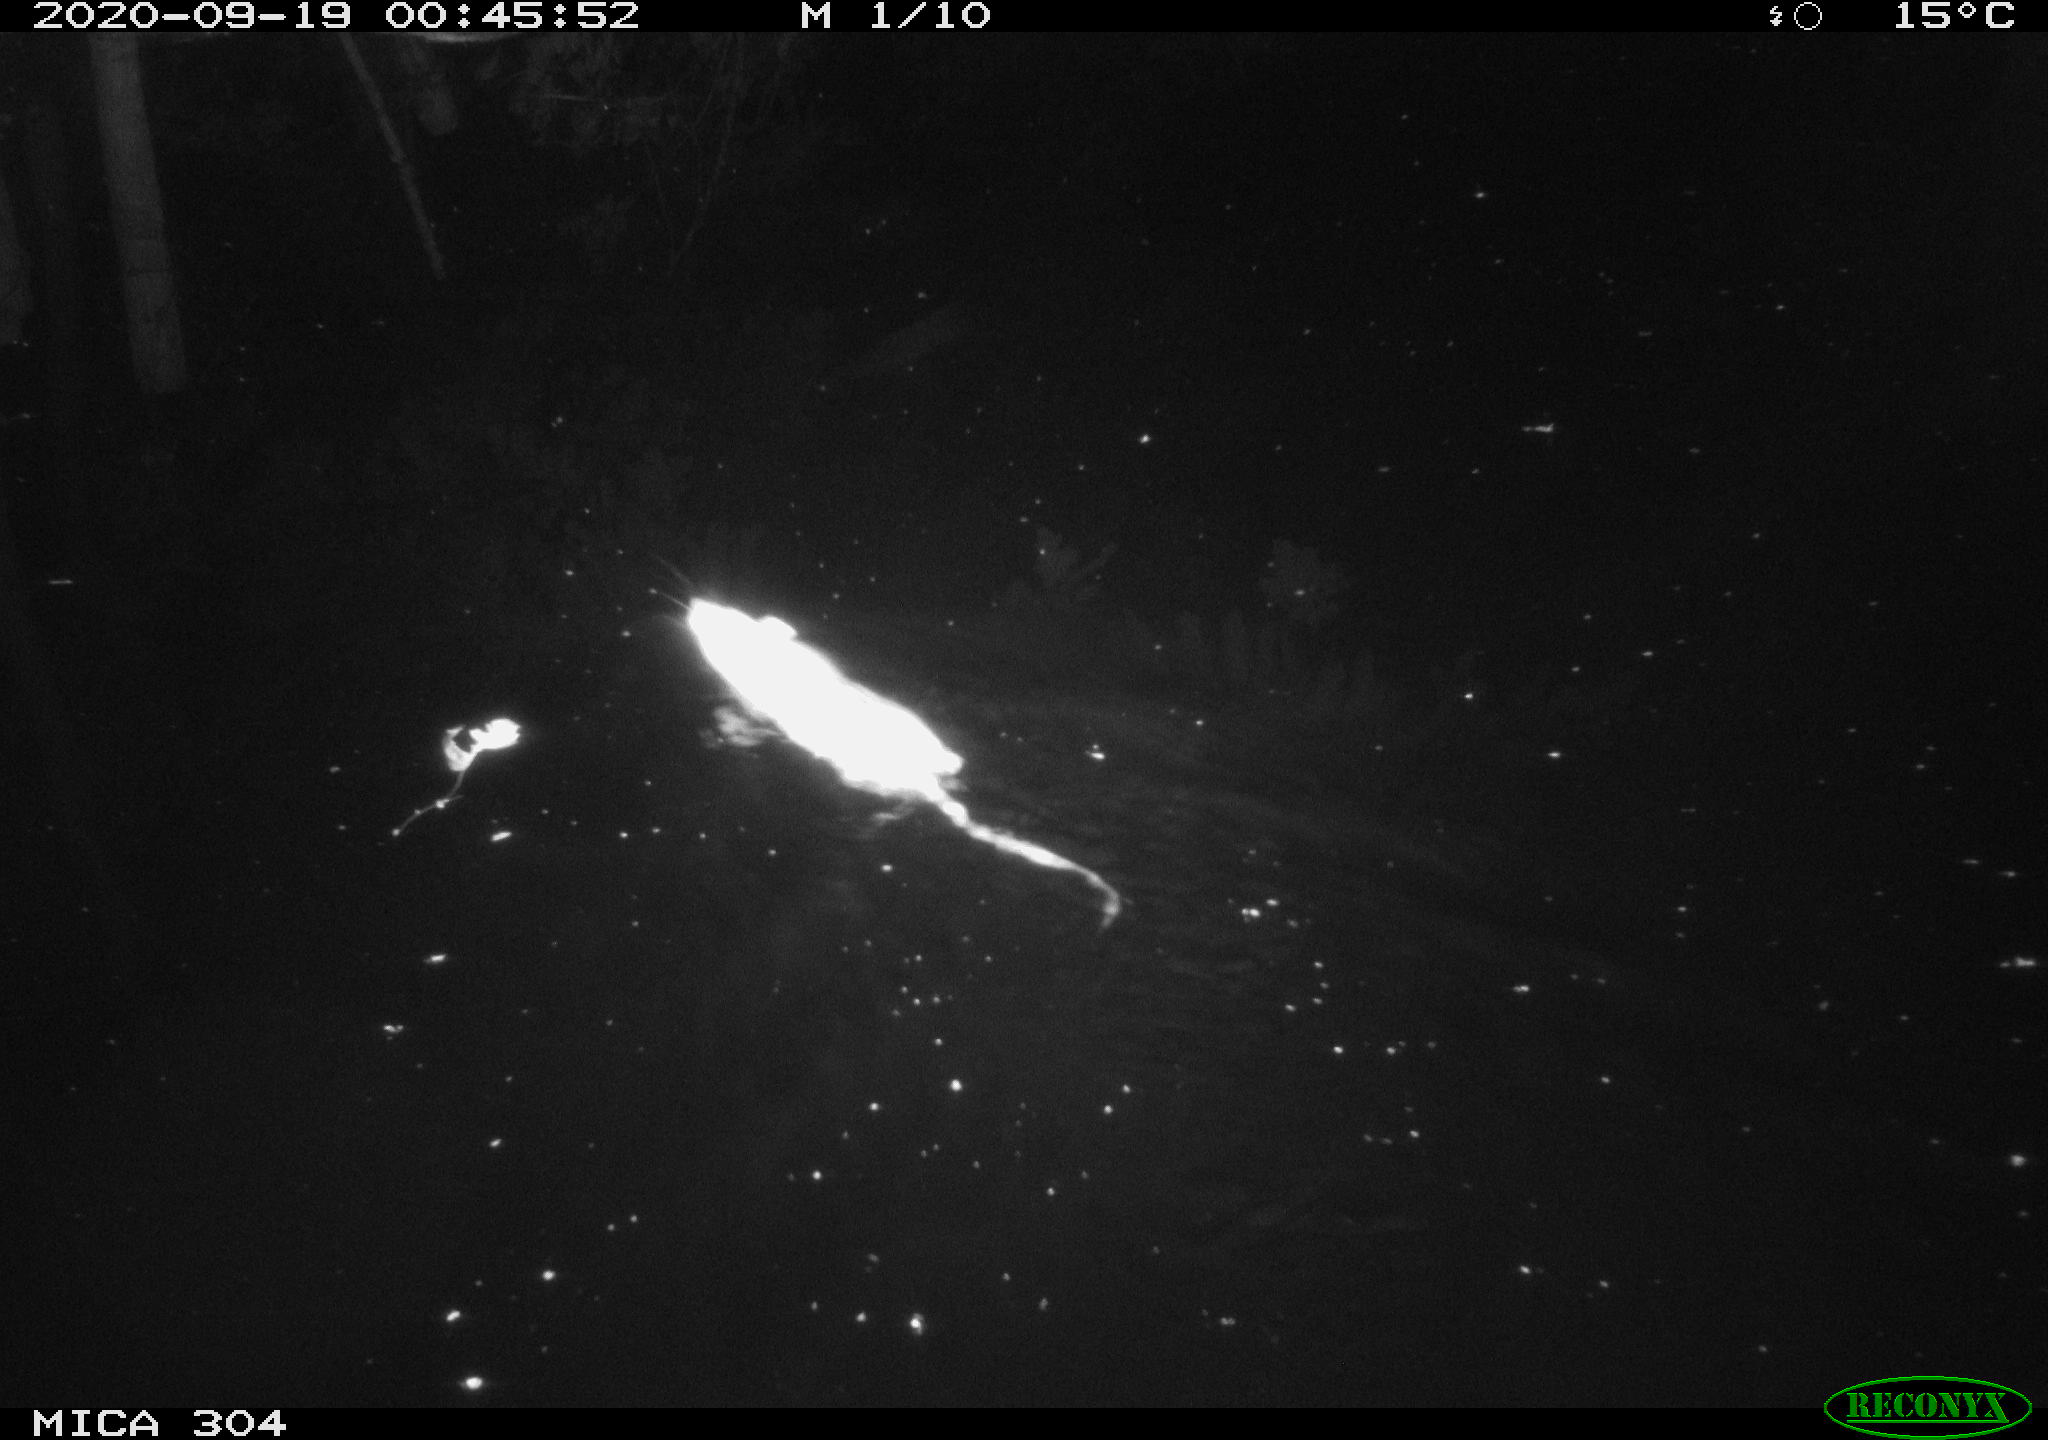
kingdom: Animalia
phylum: Chordata
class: Mammalia
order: Rodentia
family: Muridae
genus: Rattus
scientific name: Rattus norvegicus
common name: Brown rat
